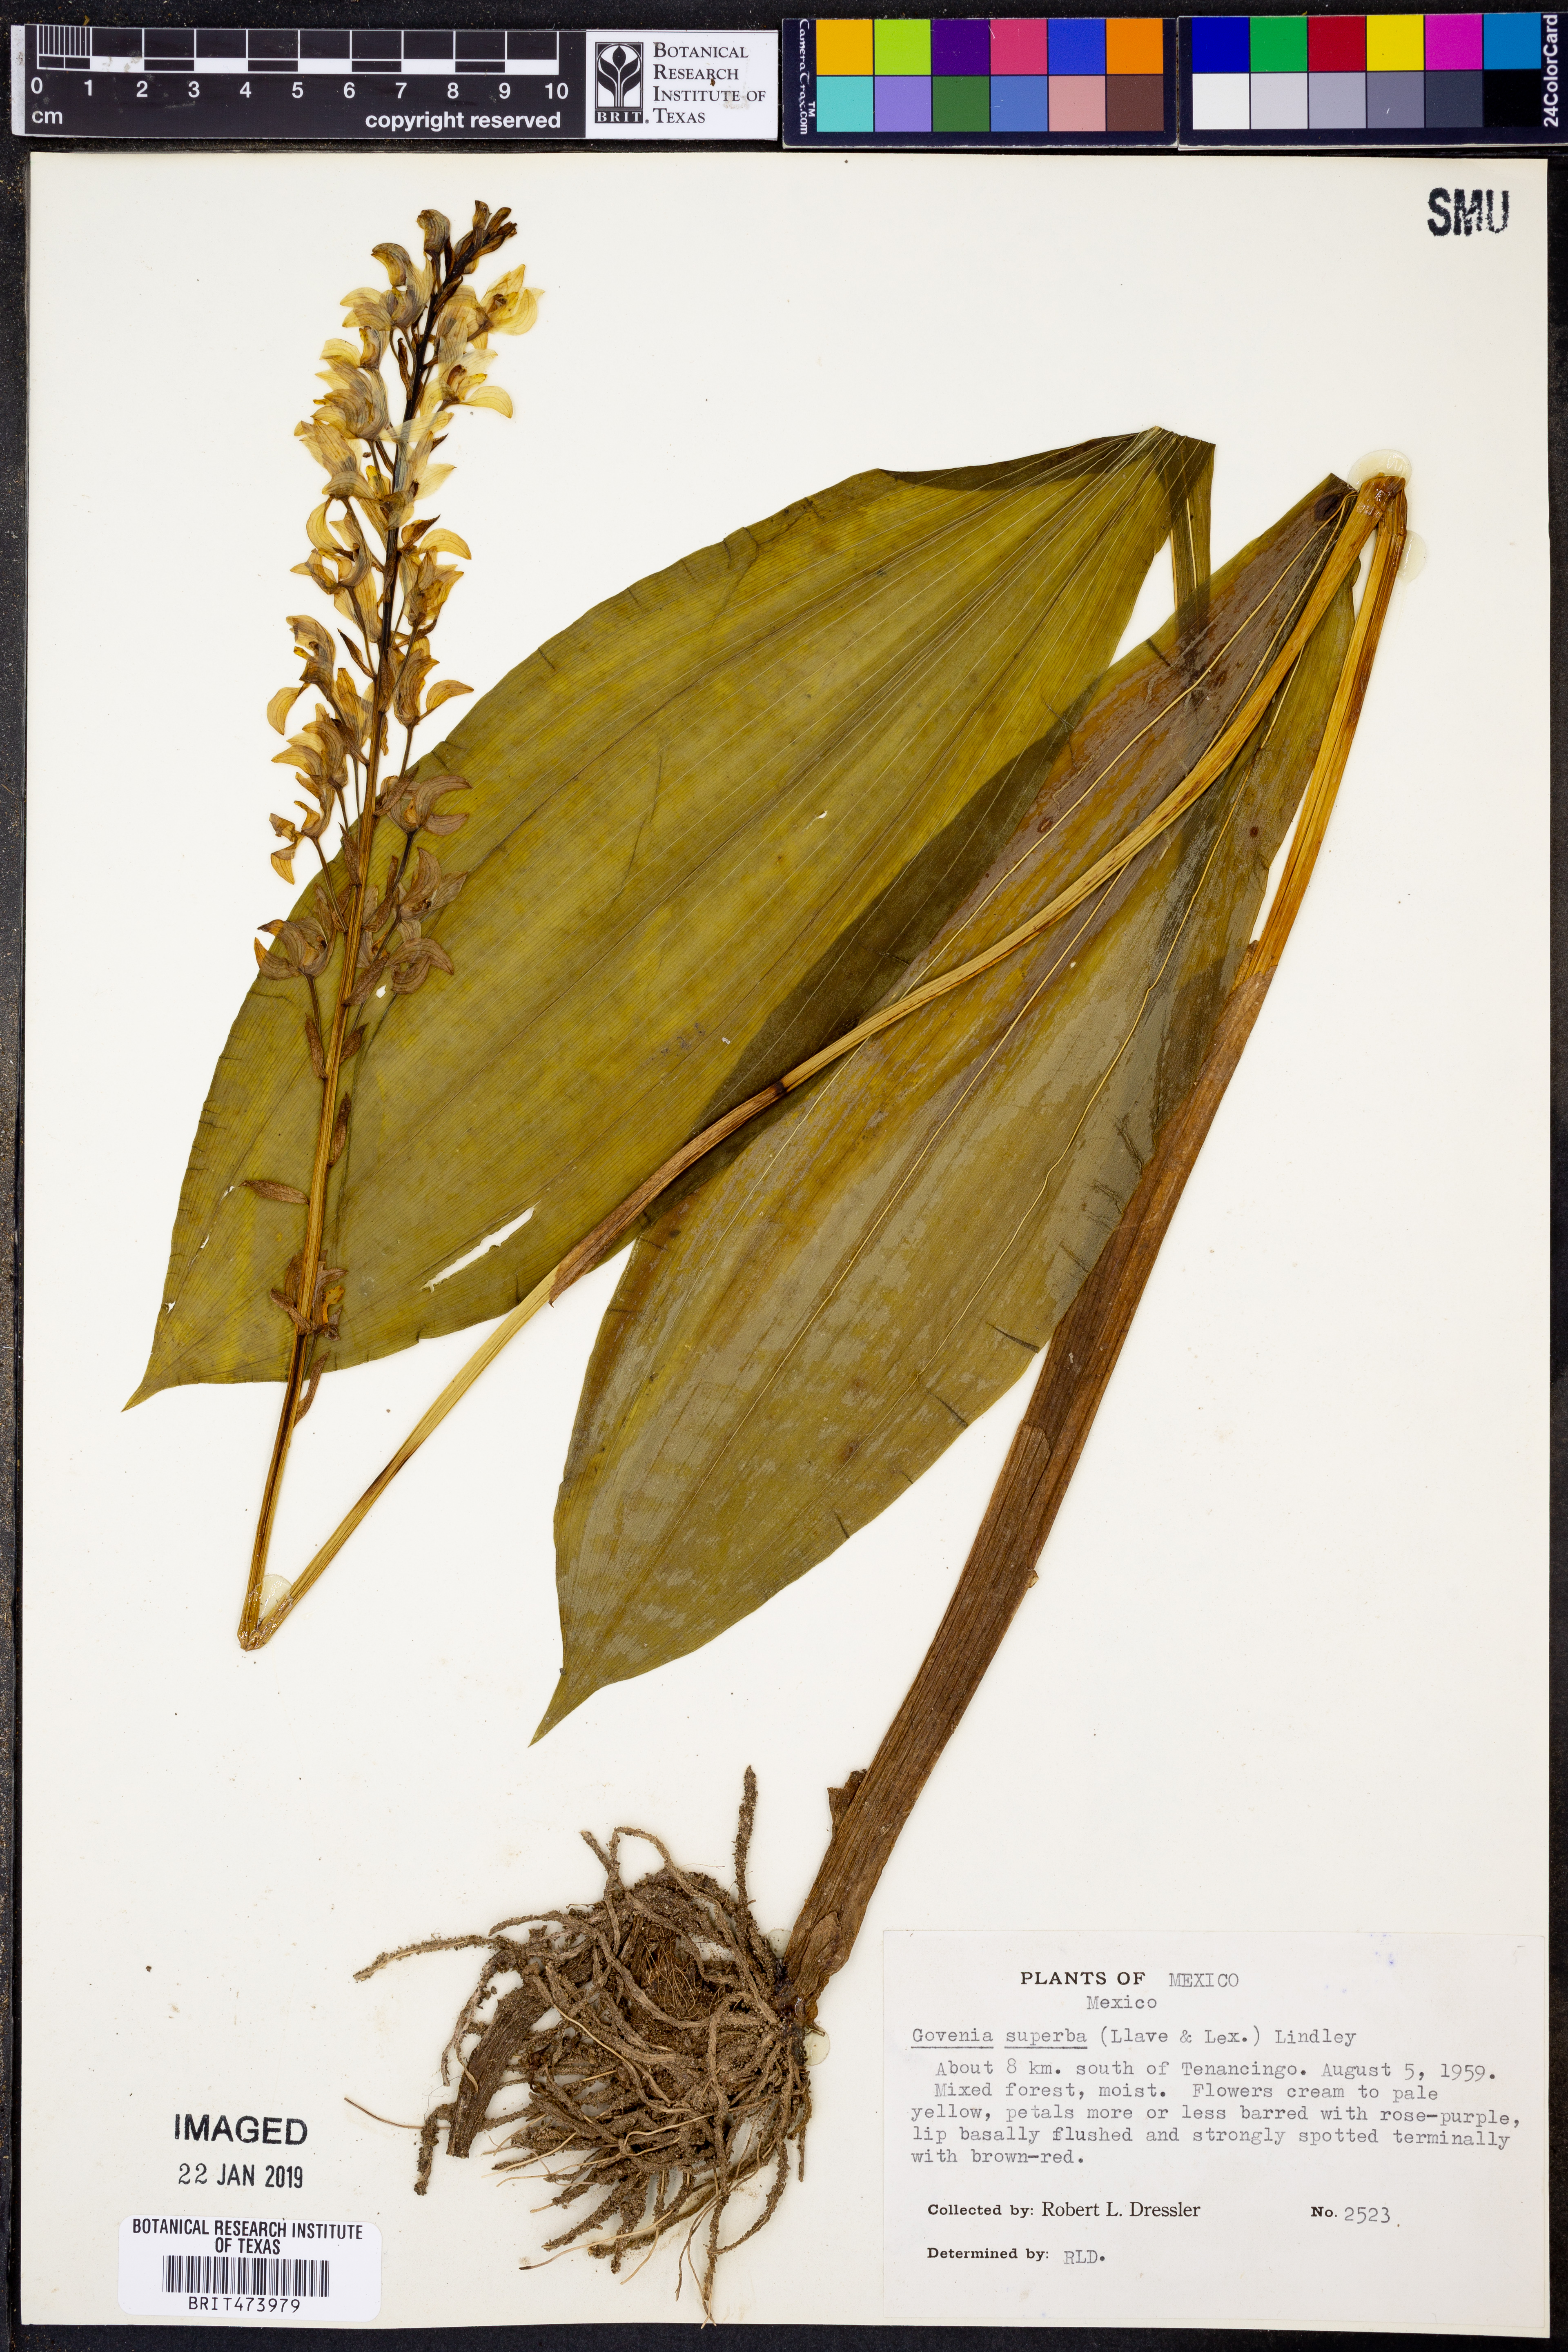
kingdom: Plantae
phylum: Tracheophyta
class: Liliopsida
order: Asparagales
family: Orchidaceae
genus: Govenia
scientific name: Govenia superba
